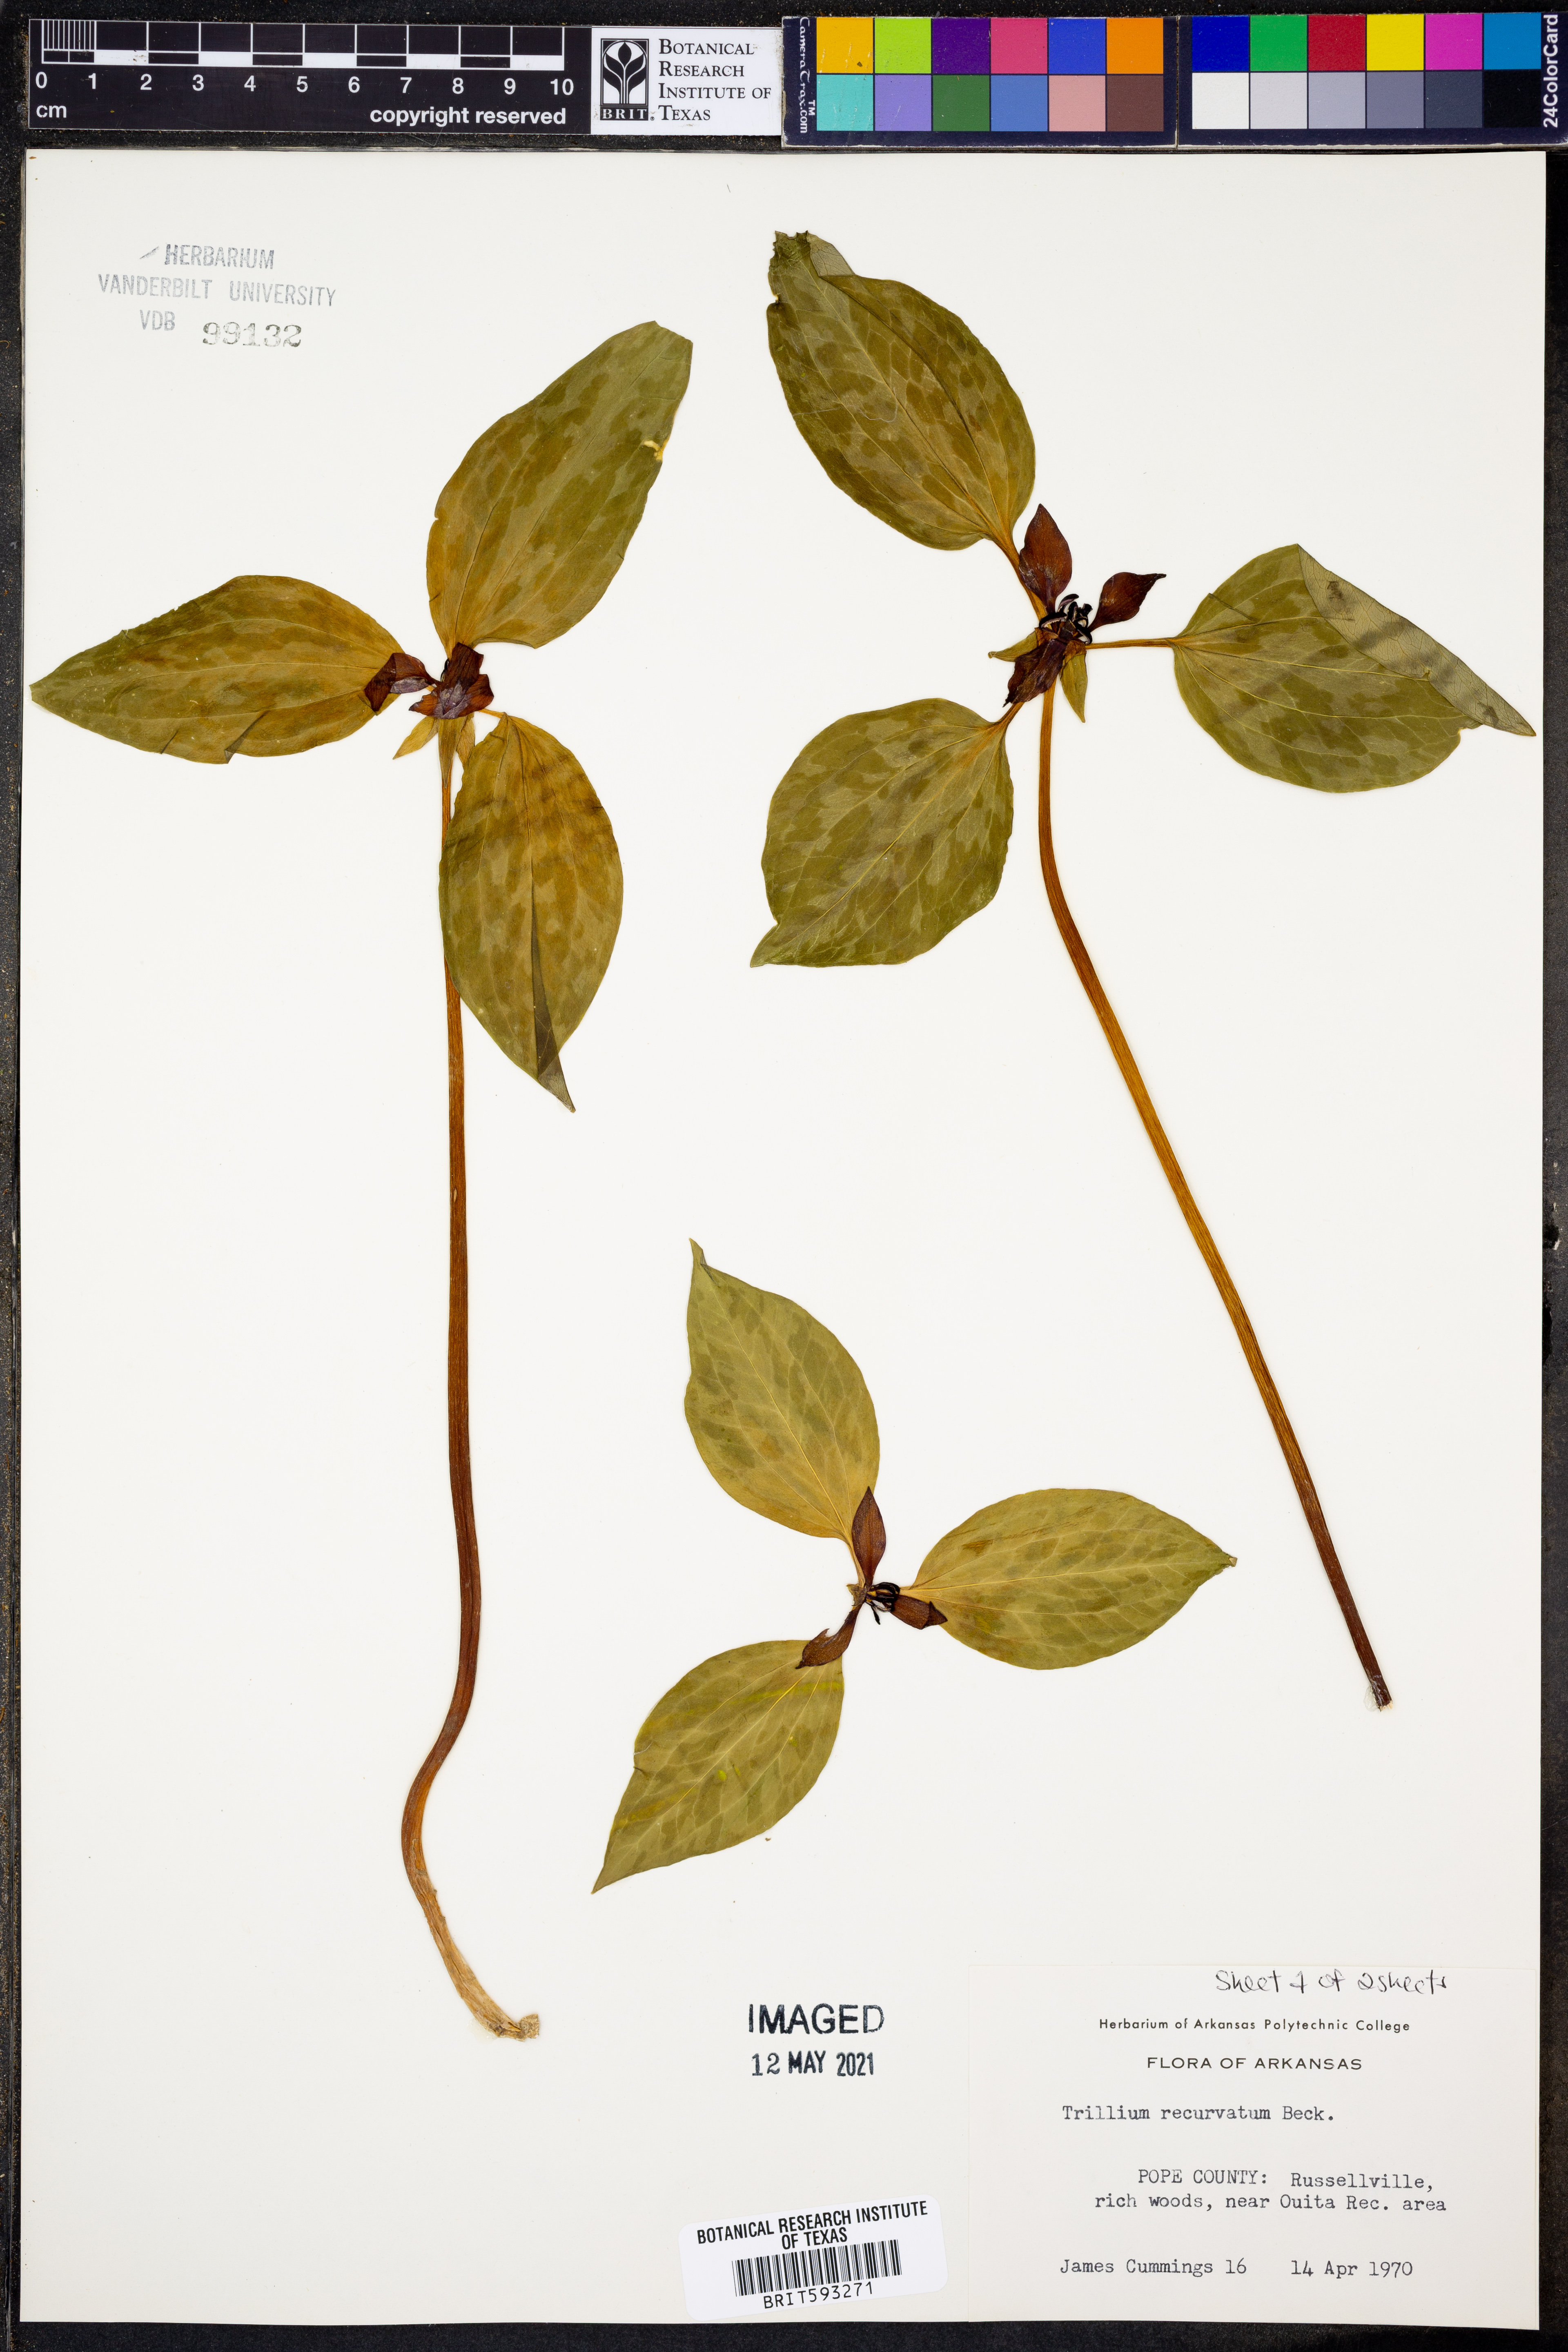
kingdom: Plantae
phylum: Tracheophyta
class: Liliopsida
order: Liliales
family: Melanthiaceae
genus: Trillium
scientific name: Trillium recurvatum
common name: Bloody butcher
